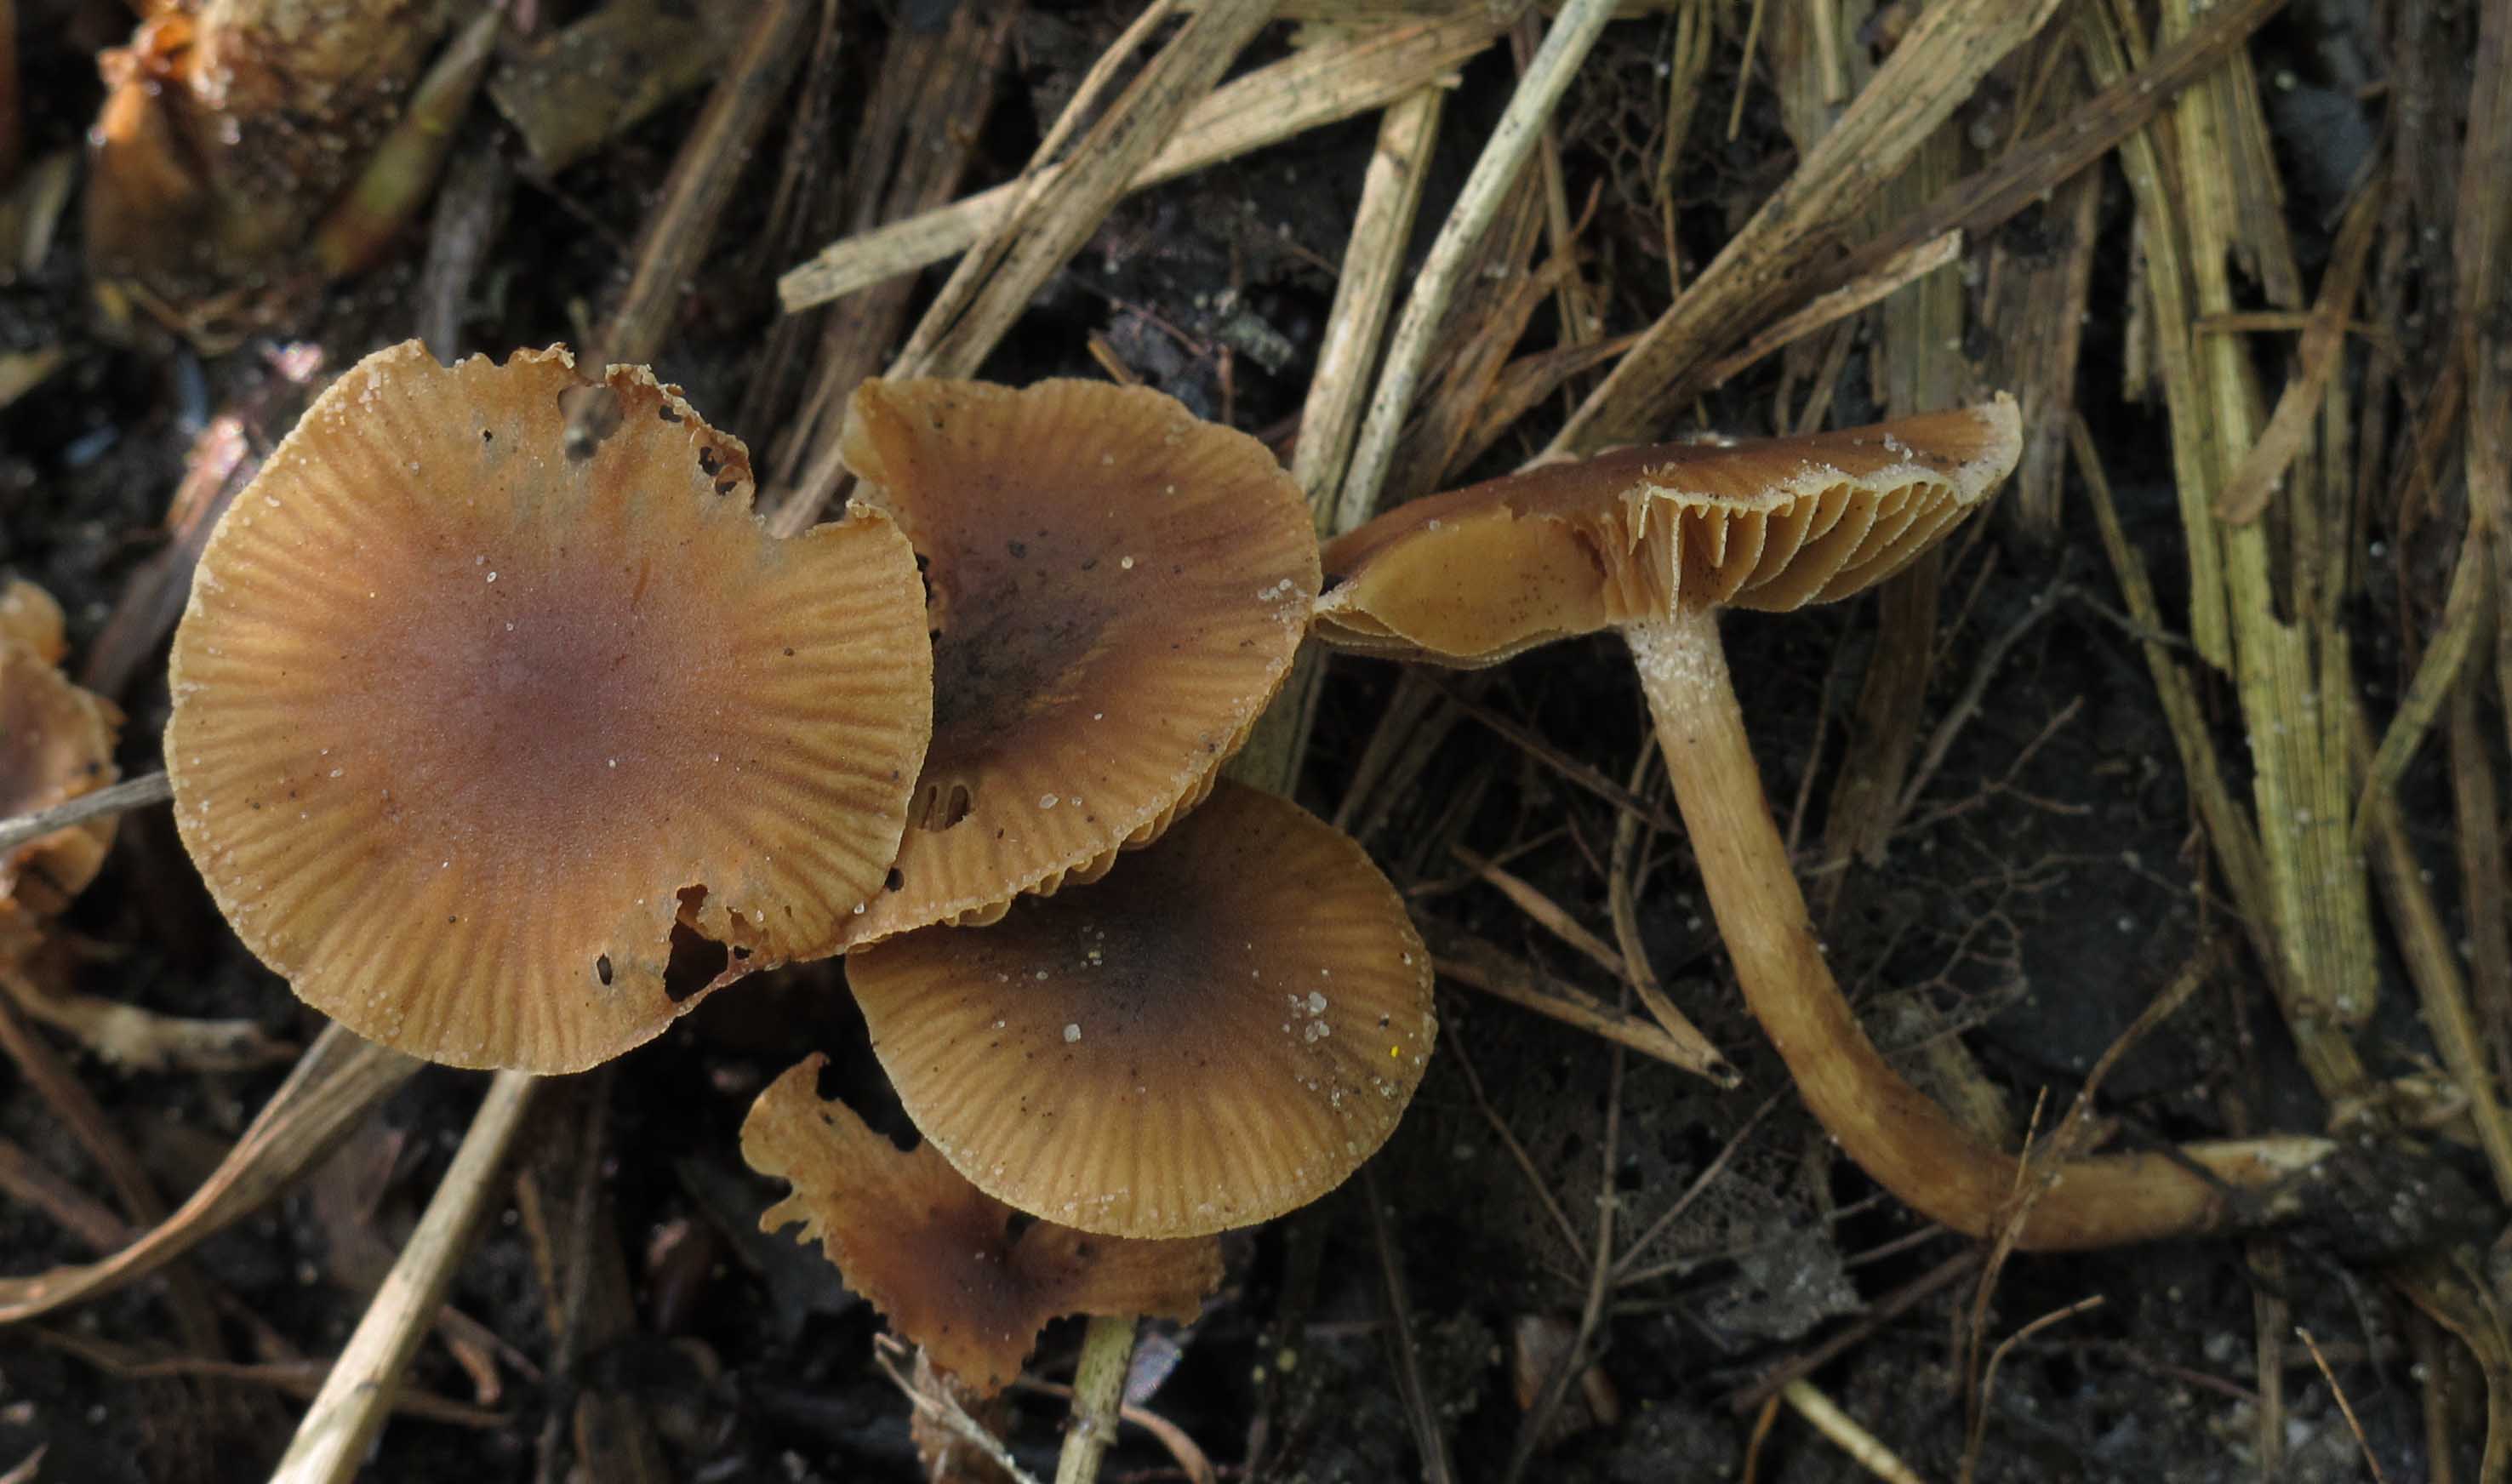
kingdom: Fungi
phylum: Basidiomycota
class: Agaricomycetes
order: Agaricales
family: Hymenogastraceae
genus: Naucoria
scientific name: Naucoria salicis
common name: pile-knaphat
